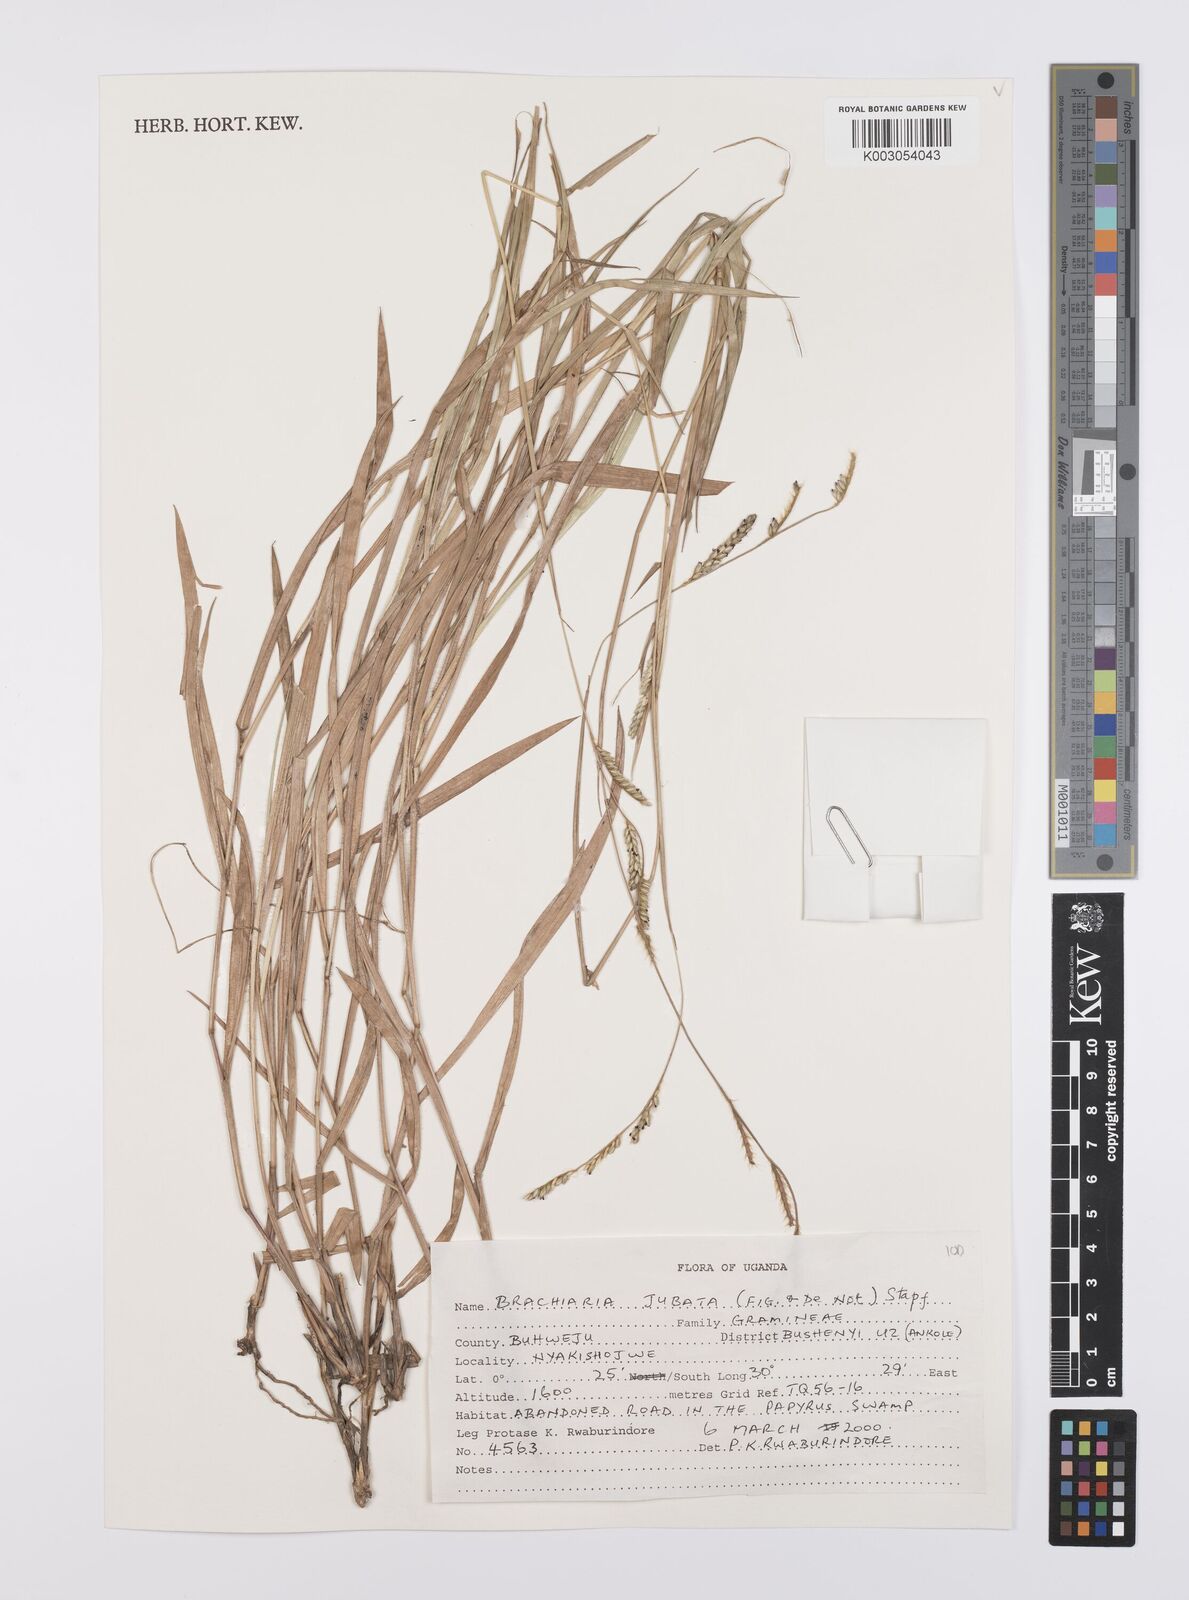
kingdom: Plantae
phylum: Tracheophyta
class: Liliopsida
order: Poales
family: Poaceae
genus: Urochloa
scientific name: Urochloa jubata
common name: Buffalograss
